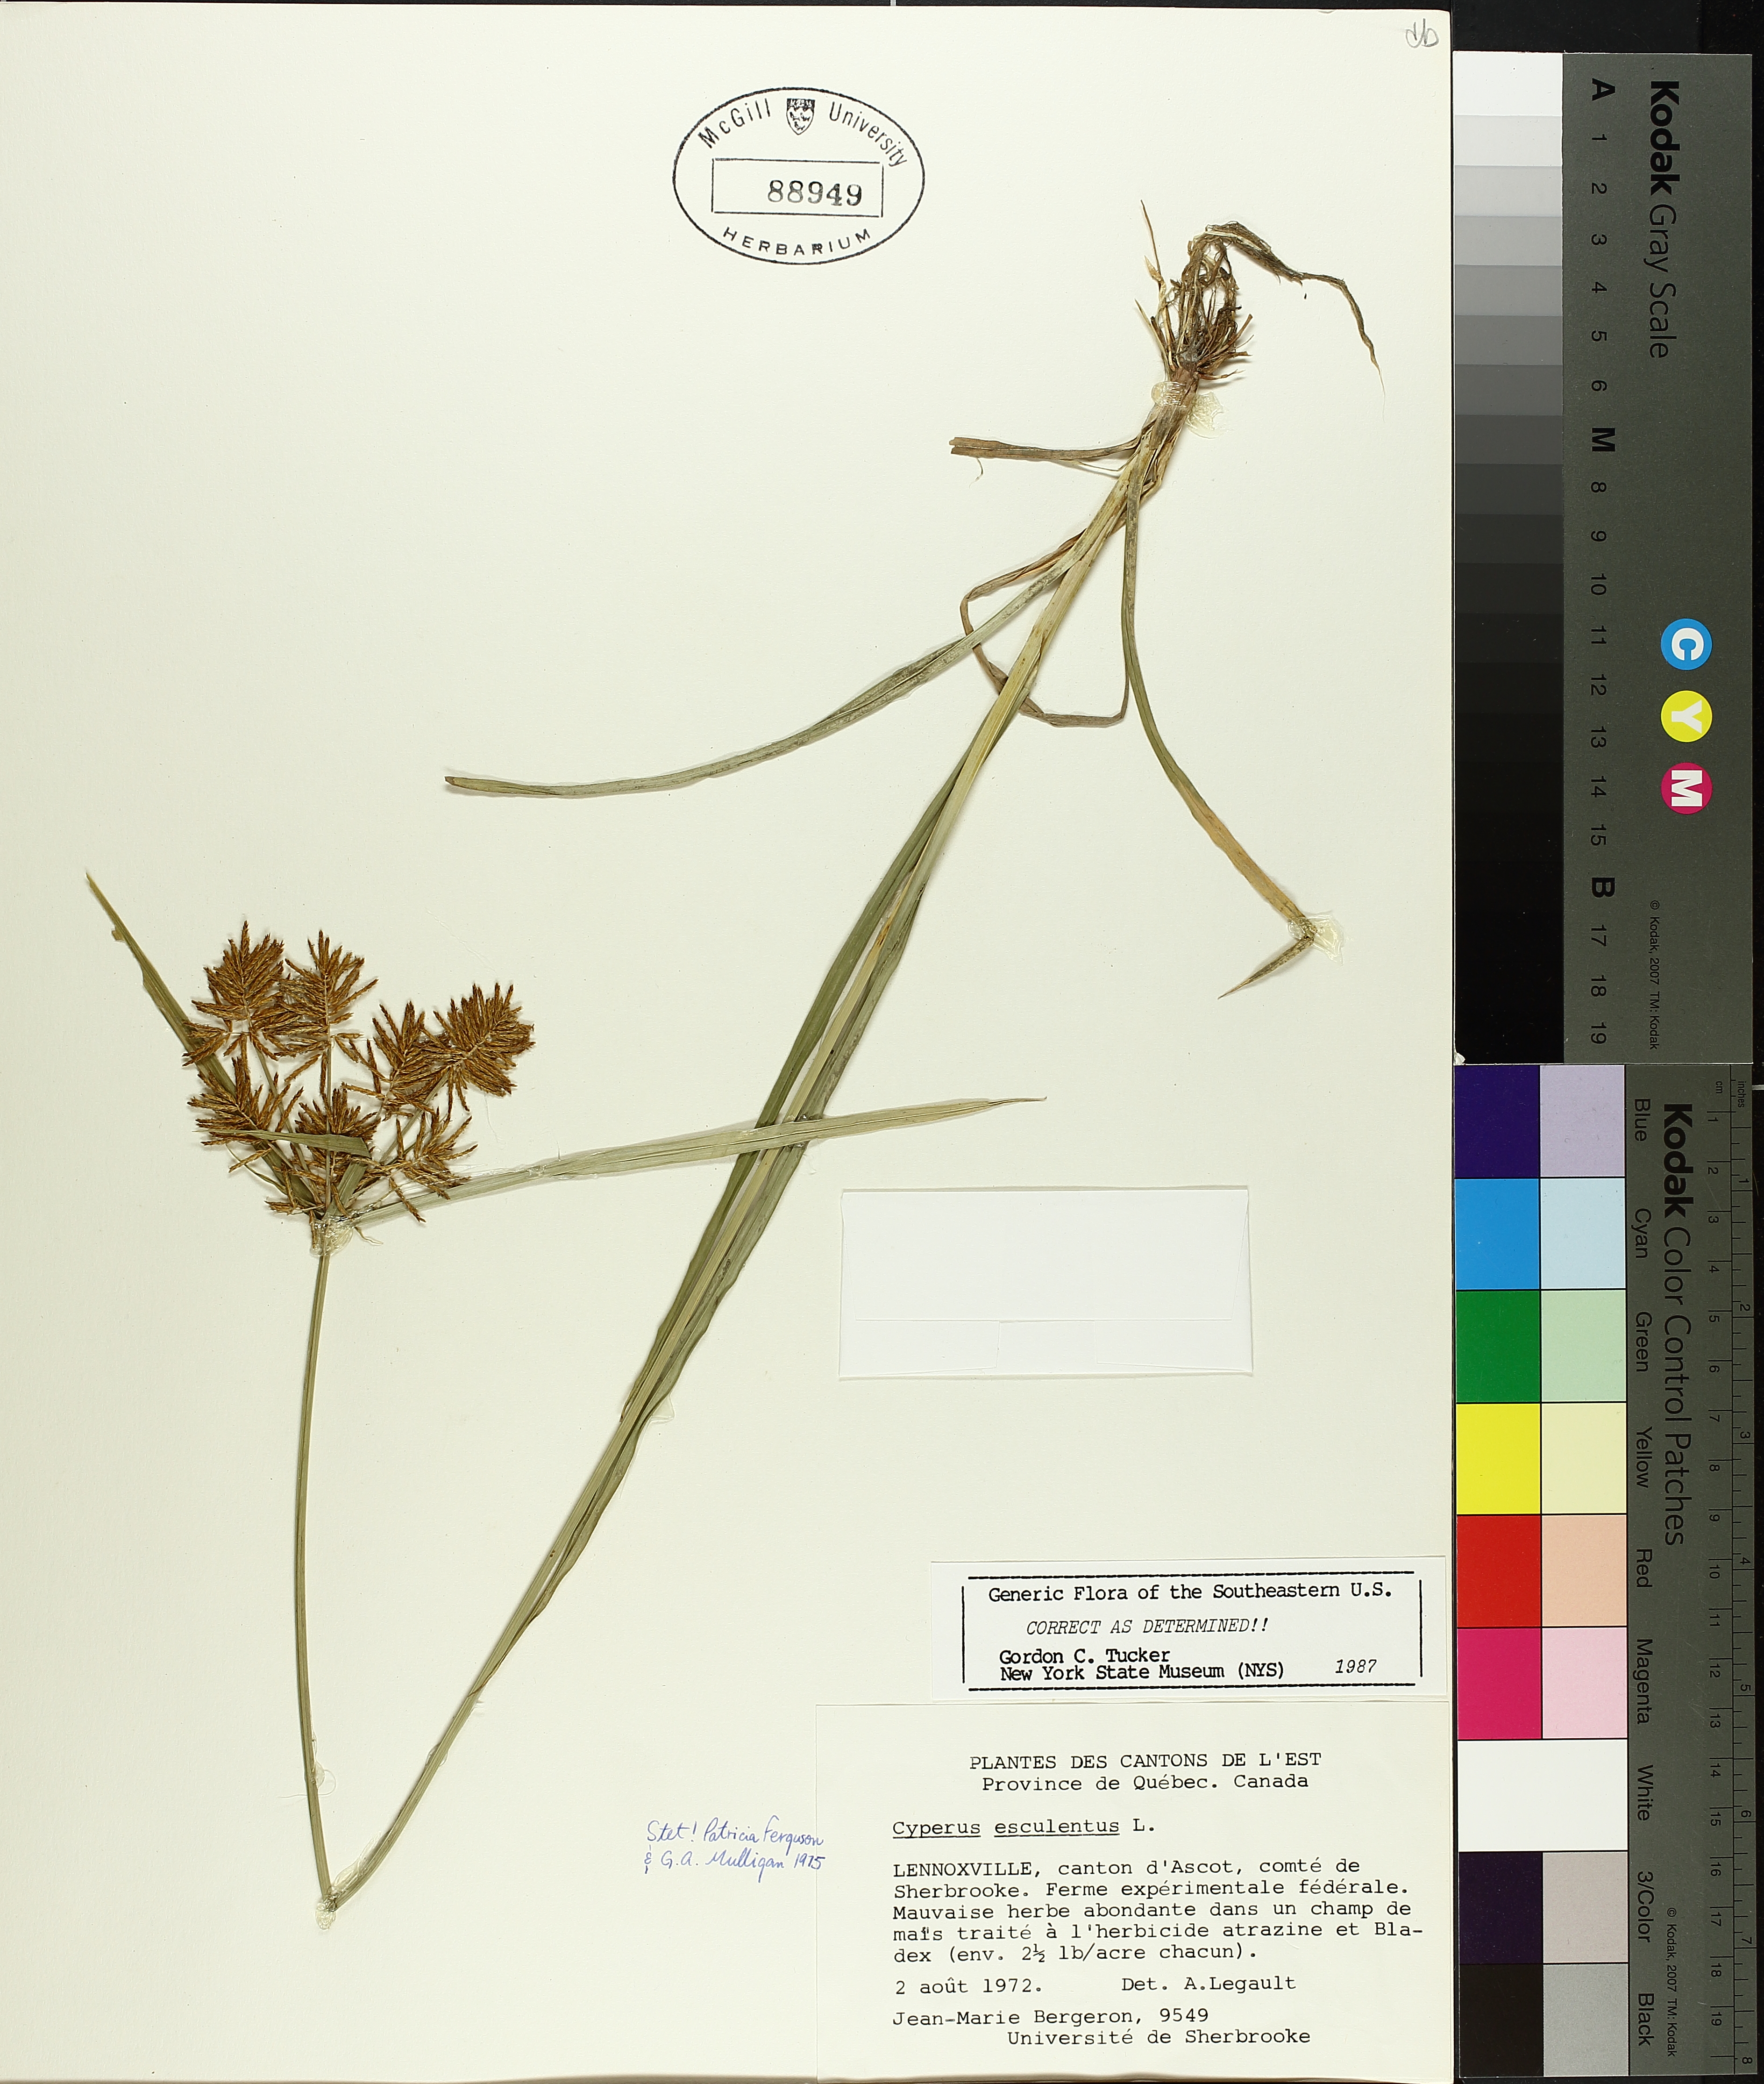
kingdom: Plantae
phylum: Tracheophyta
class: Liliopsida
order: Poales
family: Cyperaceae
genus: Cyperus
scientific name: Cyperus esculentus
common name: Yellow nutsedge
